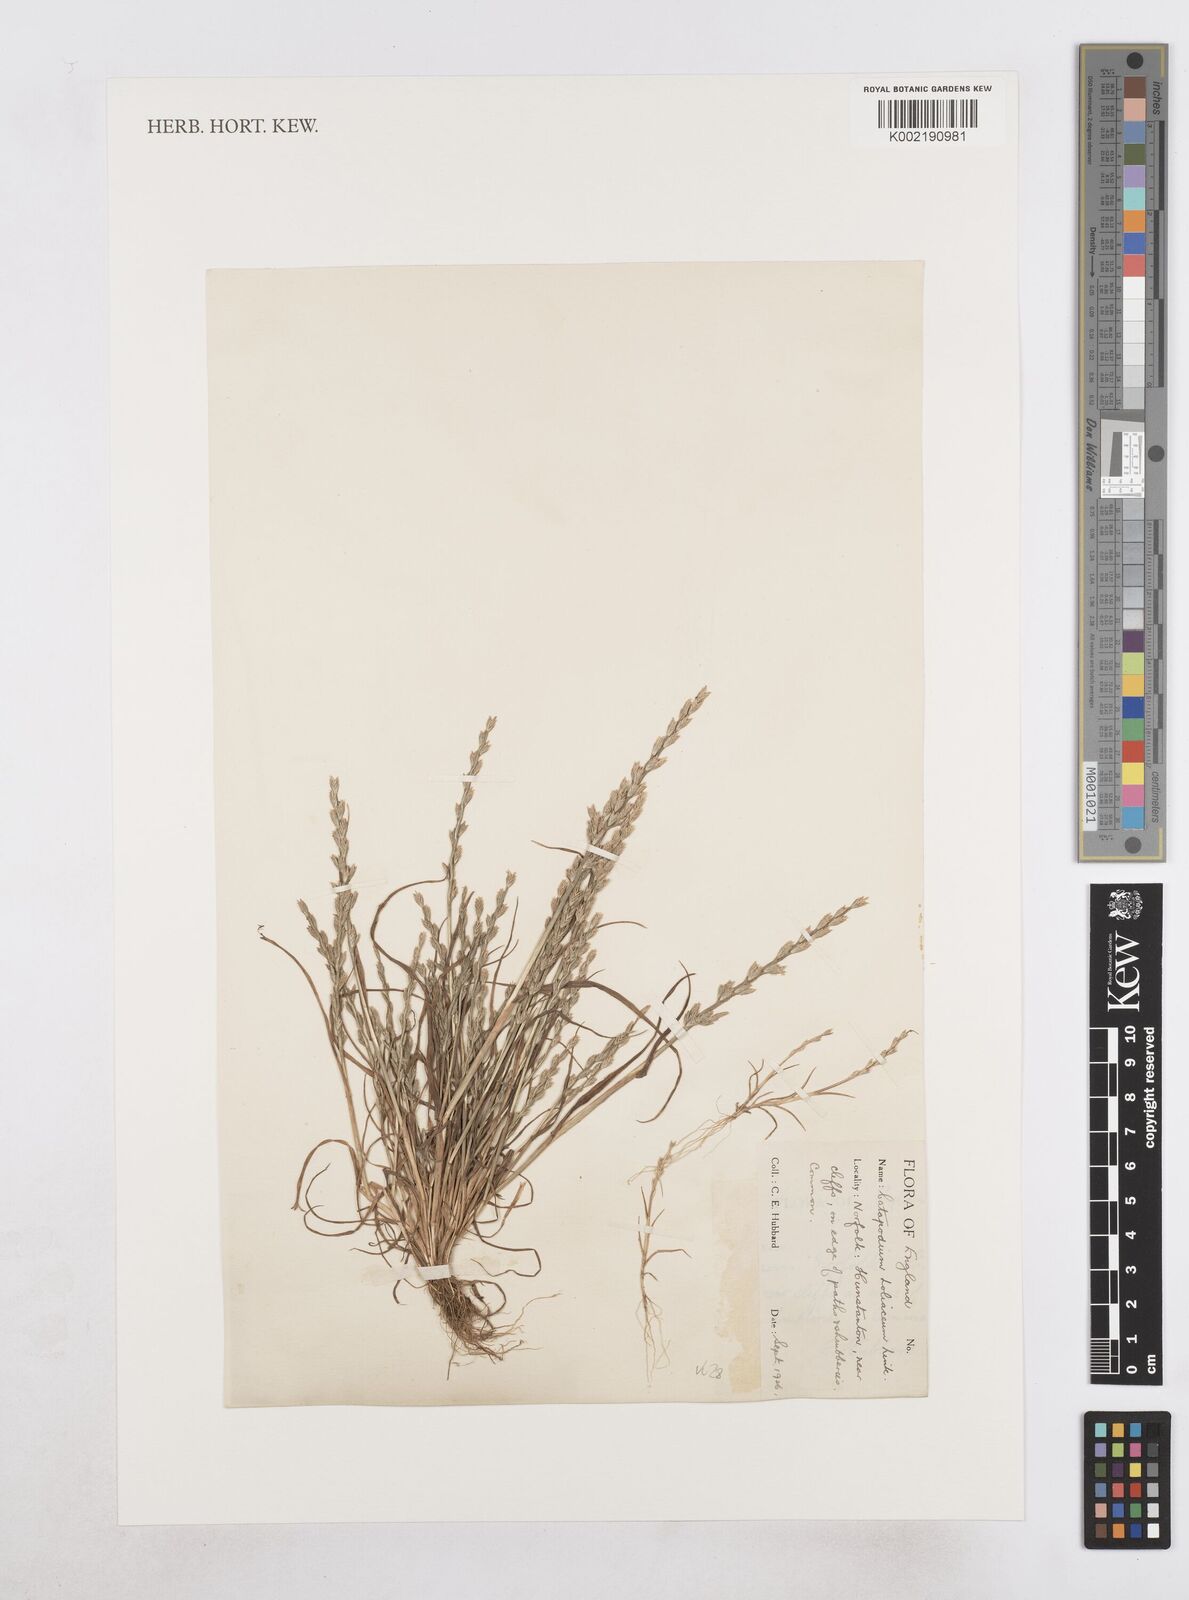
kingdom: Plantae
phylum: Tracheophyta
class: Liliopsida
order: Poales
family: Poaceae
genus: Catapodium
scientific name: Catapodium marinum
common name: Sea fern-grass
